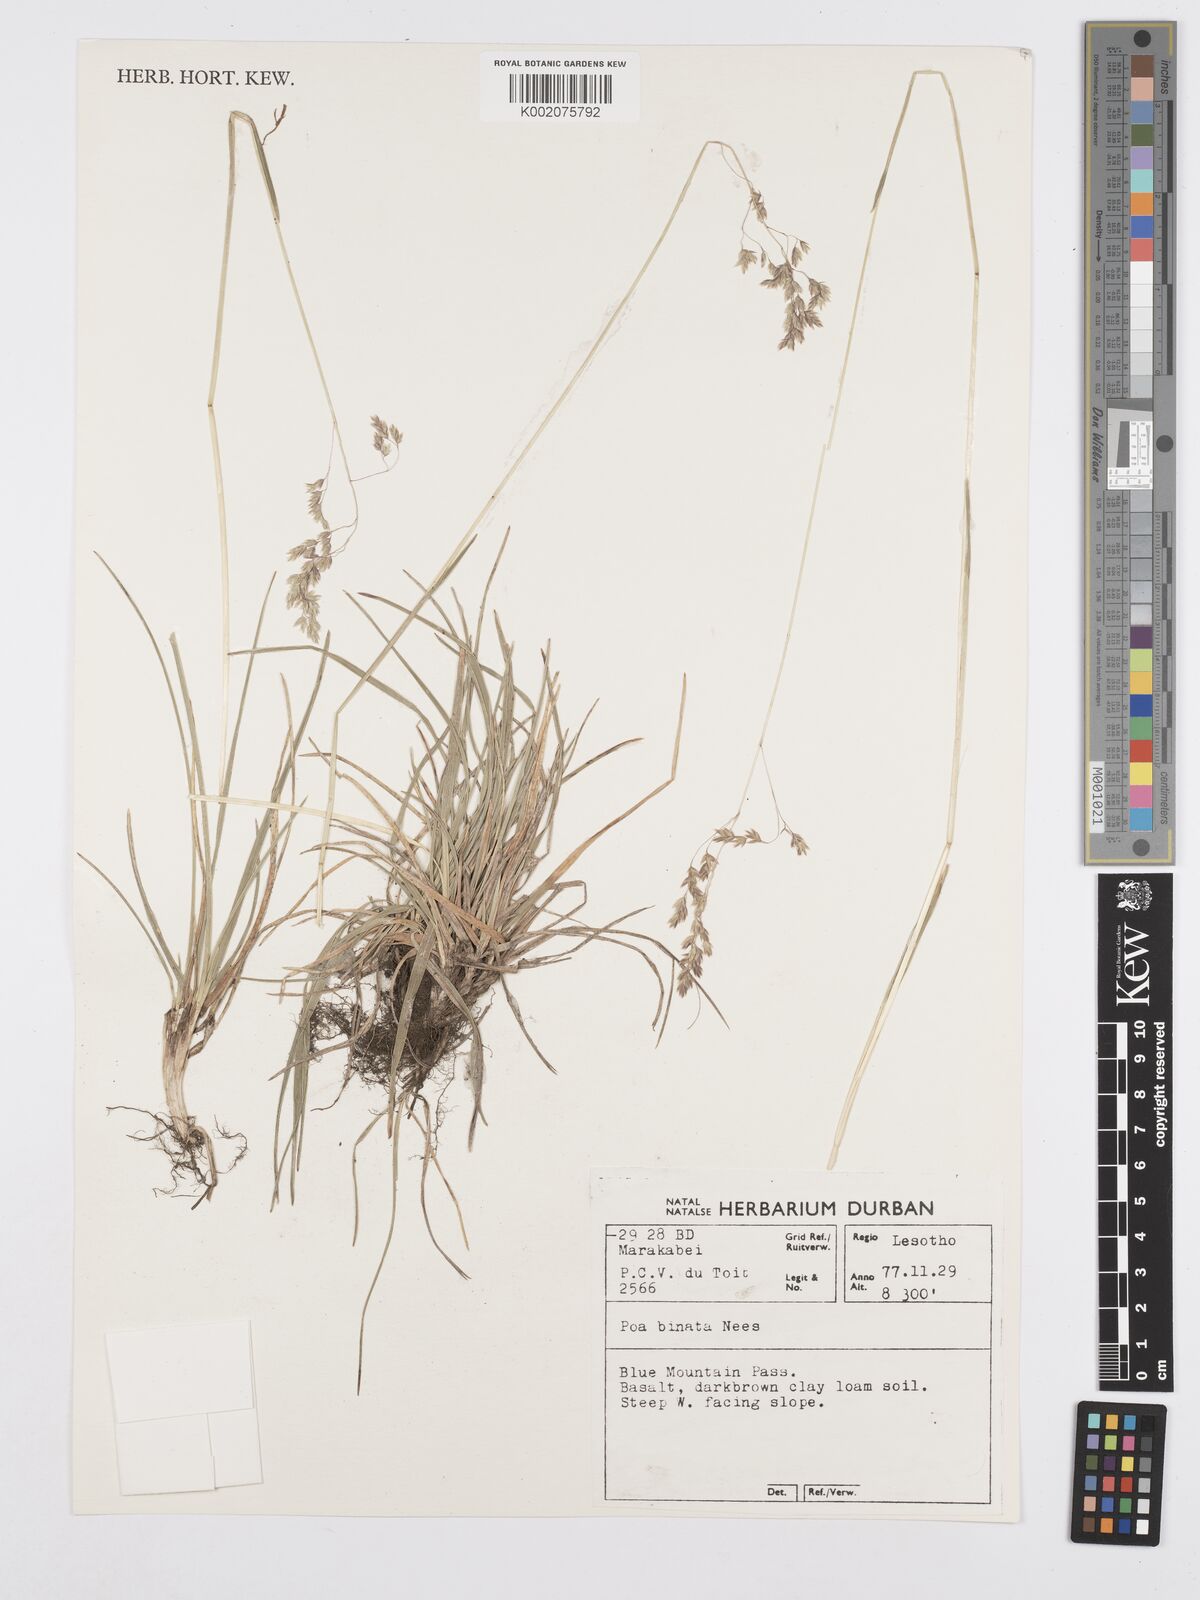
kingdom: Plantae
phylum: Tracheophyta
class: Liliopsida
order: Poales
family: Poaceae
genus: Poa
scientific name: Poa binata
